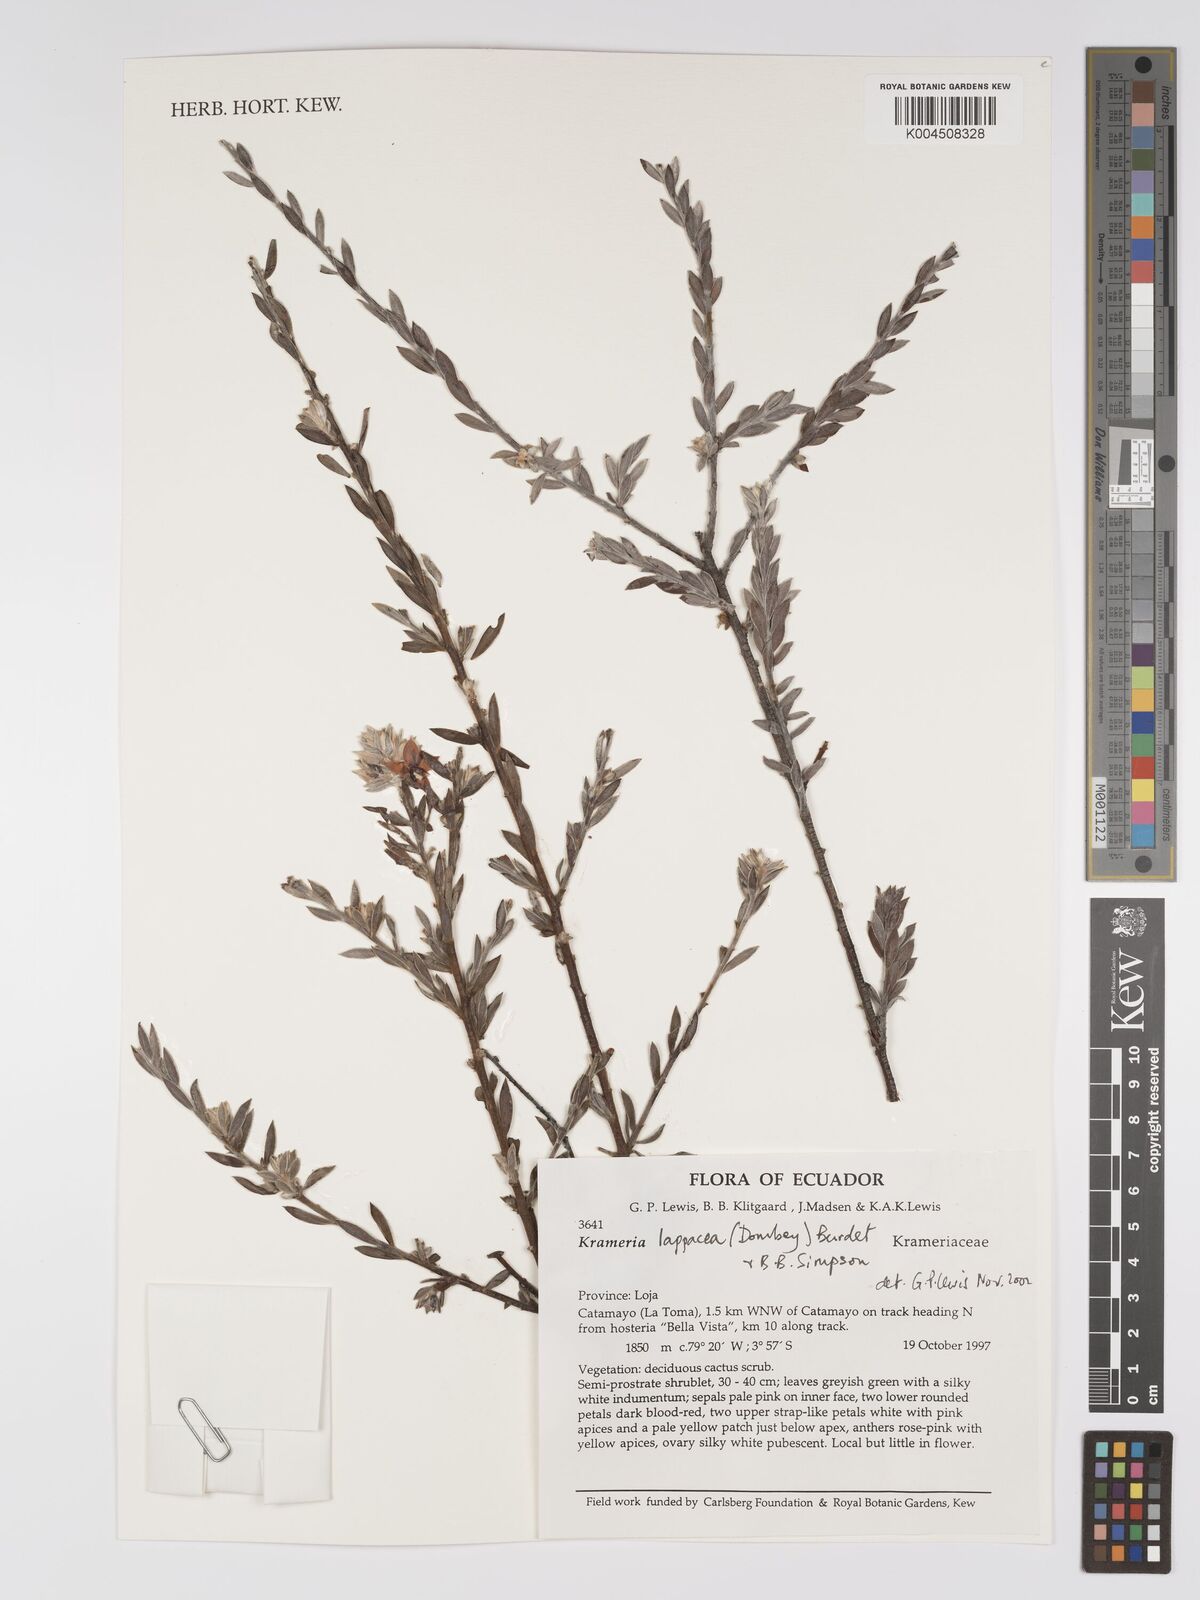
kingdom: Plantae
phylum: Tracheophyta
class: Magnoliopsida
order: Zygophyllales
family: Krameriaceae
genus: Krameria
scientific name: Krameria lappacea
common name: Rhatany
